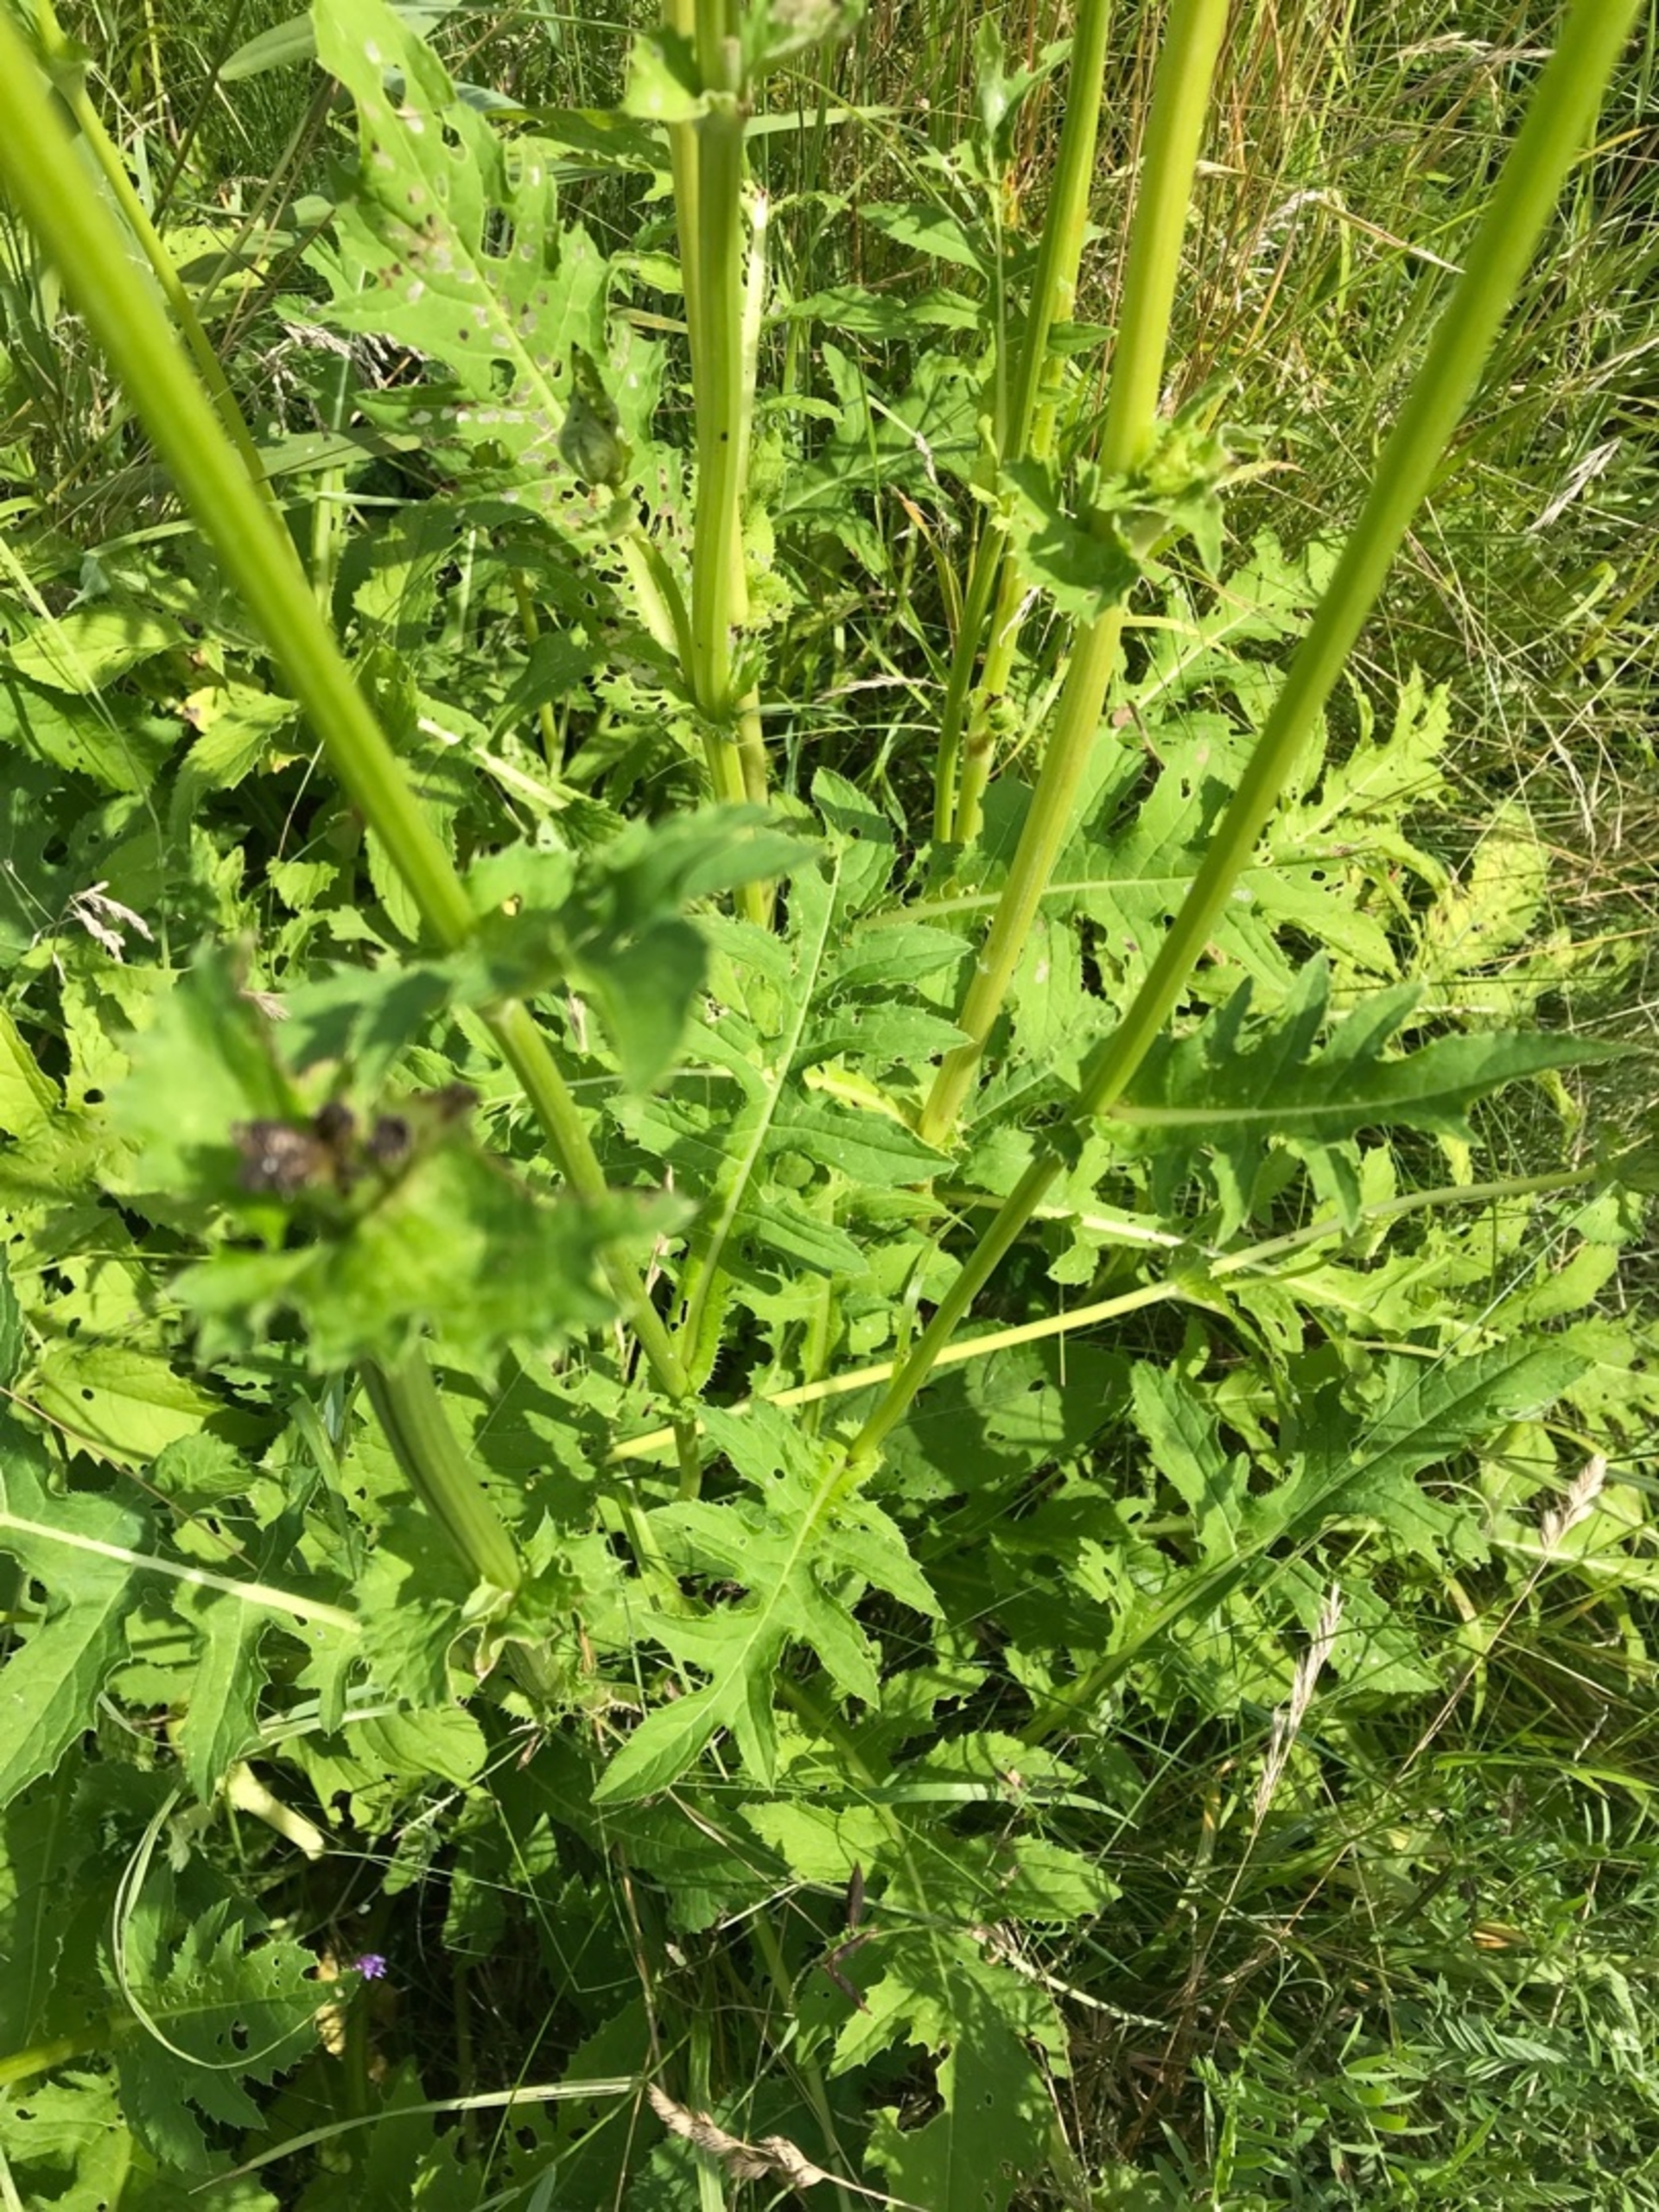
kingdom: Plantae
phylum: Tracheophyta
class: Magnoliopsida
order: Asterales
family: Asteraceae
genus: Cirsium
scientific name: Cirsium oleraceum
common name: Kål-tidsel
